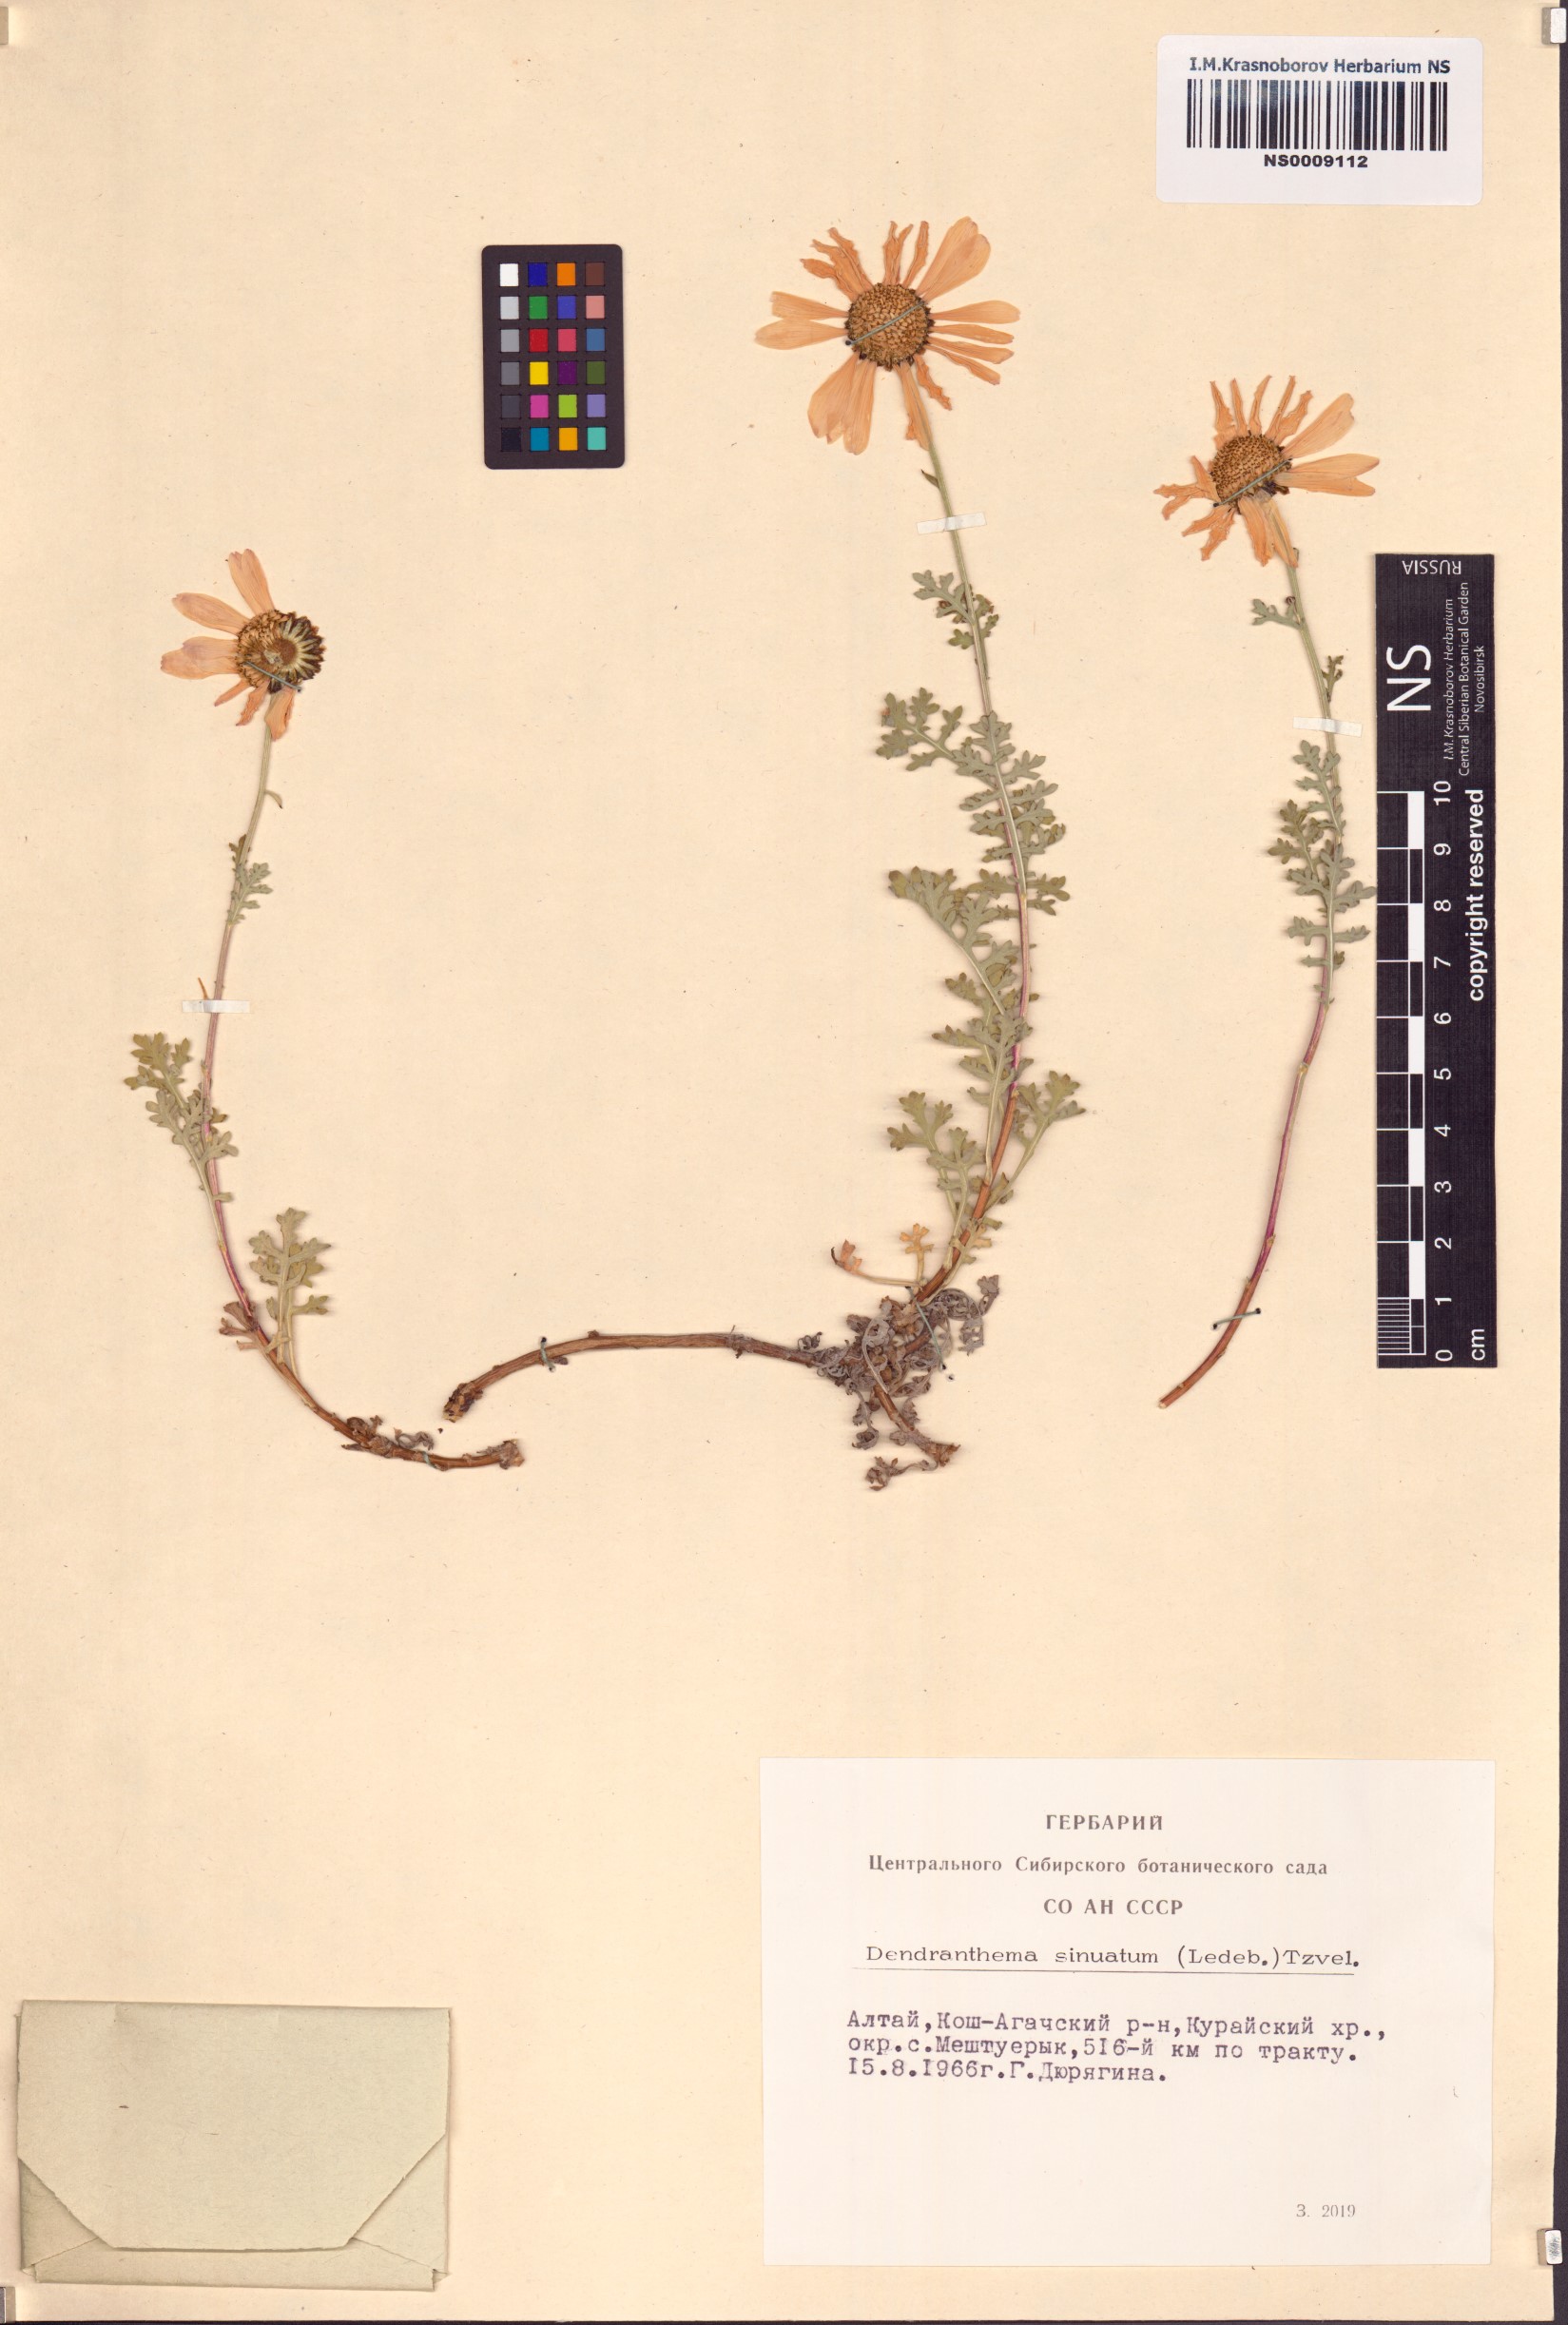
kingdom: Plantae
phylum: Tracheophyta
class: Magnoliopsida
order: Asterales
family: Asteraceae
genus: Chrysanthemum
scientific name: Chrysanthemum sinuatum
